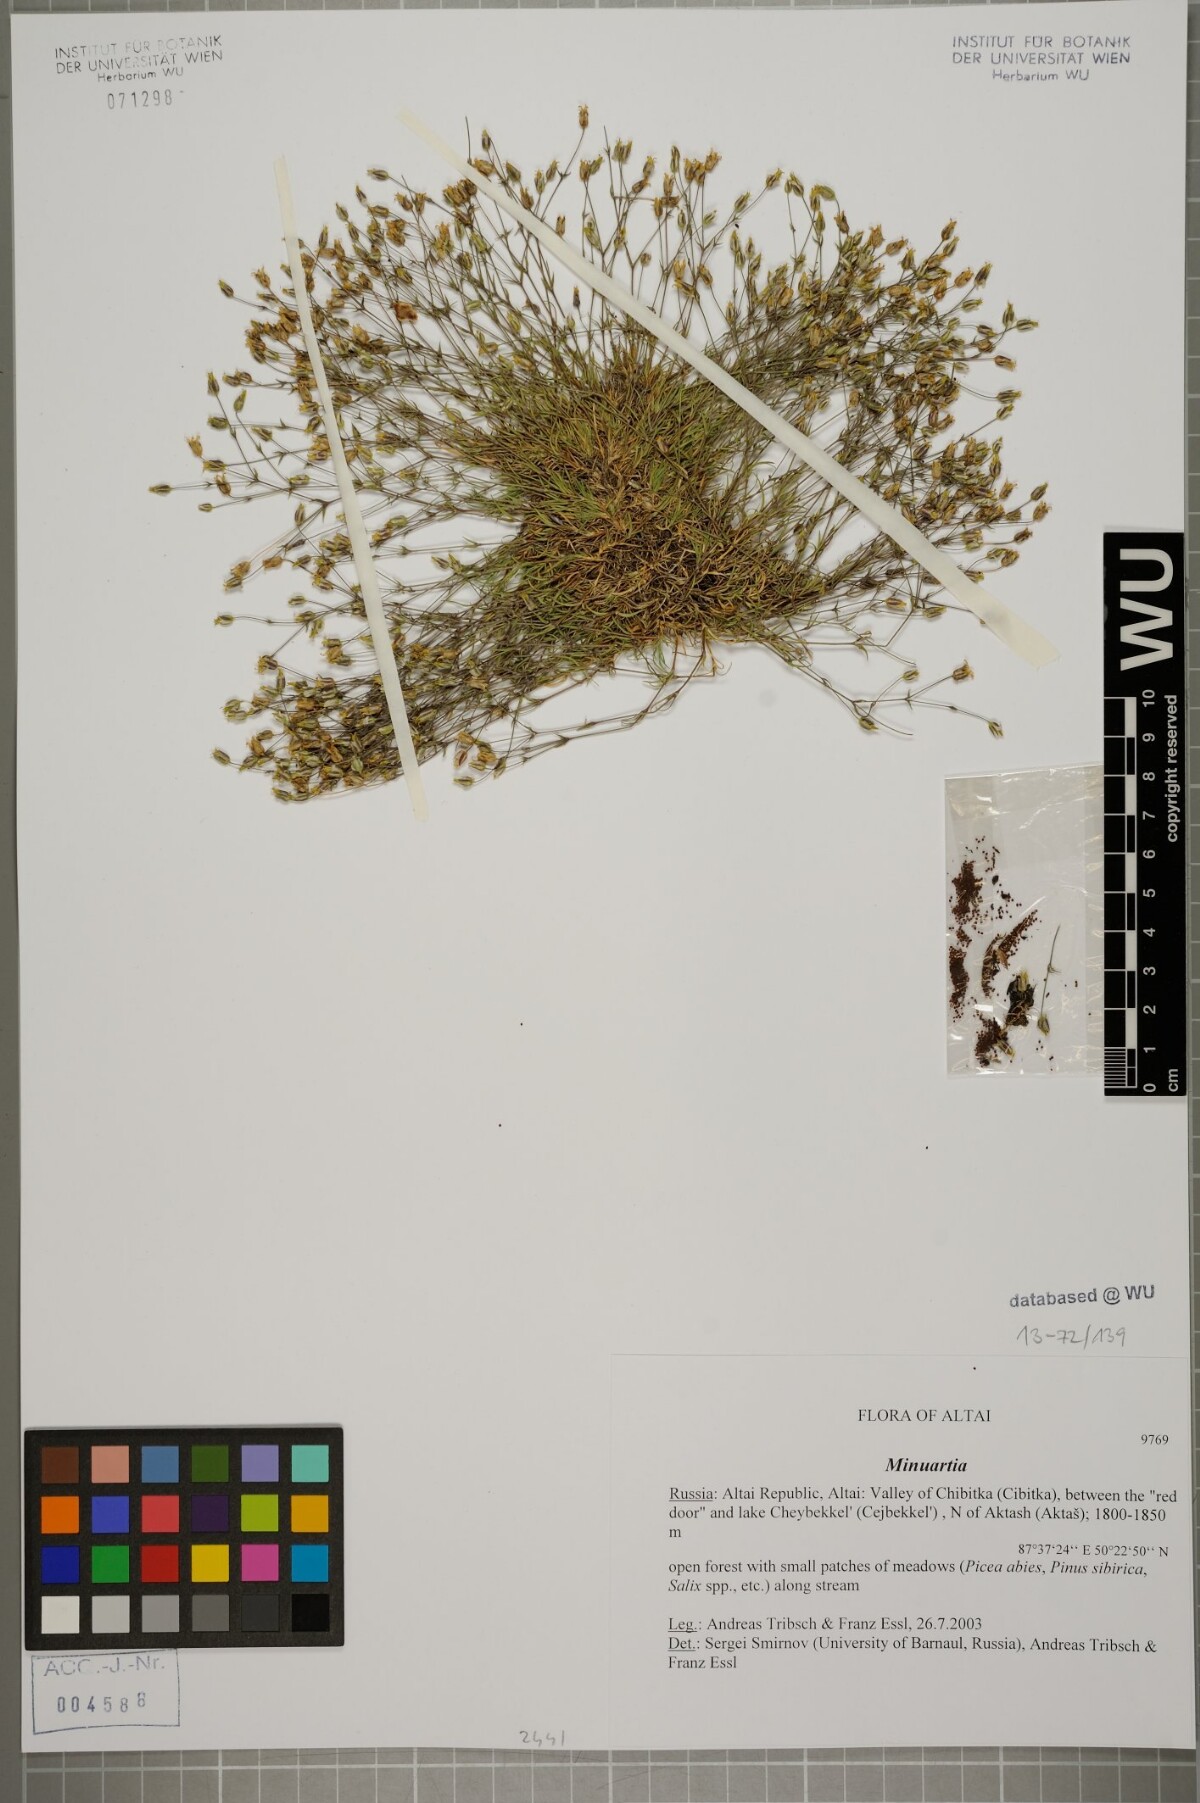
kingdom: Plantae
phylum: Tracheophyta
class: Magnoliopsida
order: Caryophyllales
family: Caryophyllaceae
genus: Sabulina
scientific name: Sabulina verna
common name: Spring sandwort
